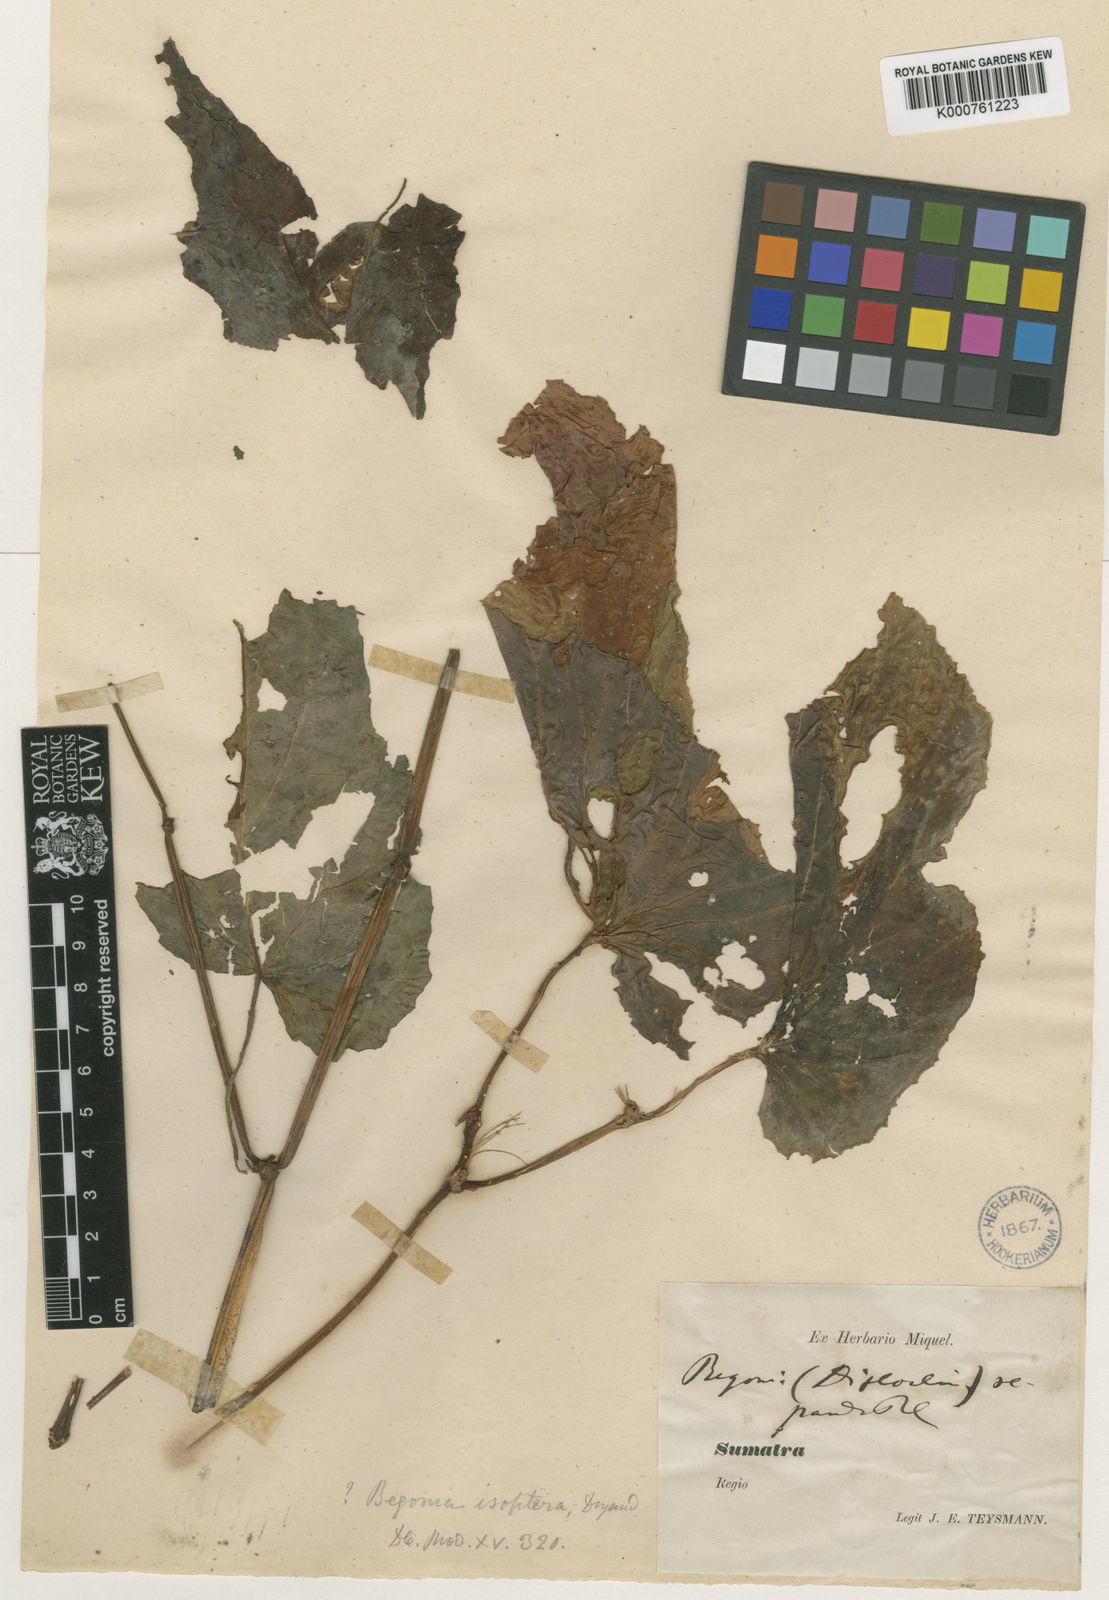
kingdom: Plantae
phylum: Tracheophyta
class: Magnoliopsida
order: Cucurbitales
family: Begoniaceae
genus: Begonia
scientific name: Begonia isoptera
